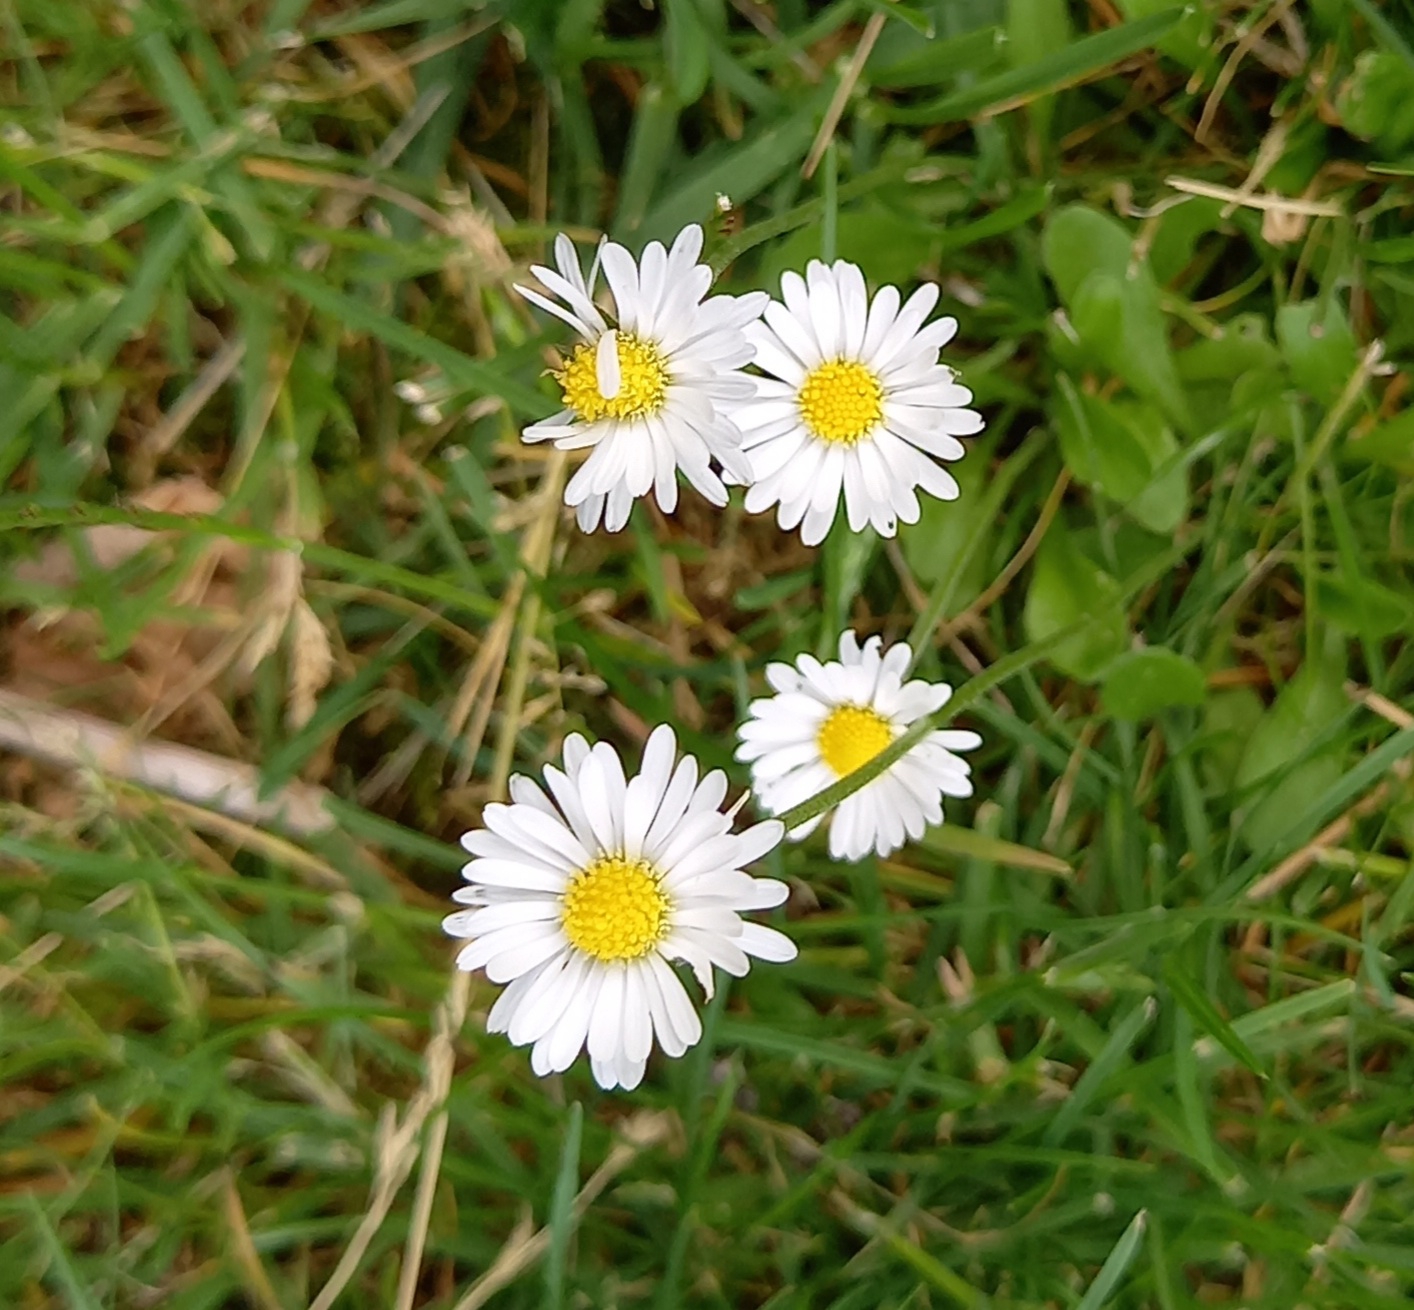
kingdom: Plantae
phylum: Tracheophyta
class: Magnoliopsida
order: Asterales
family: Asteraceae
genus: Bellis
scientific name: Bellis perennis
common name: Tusindfryd
